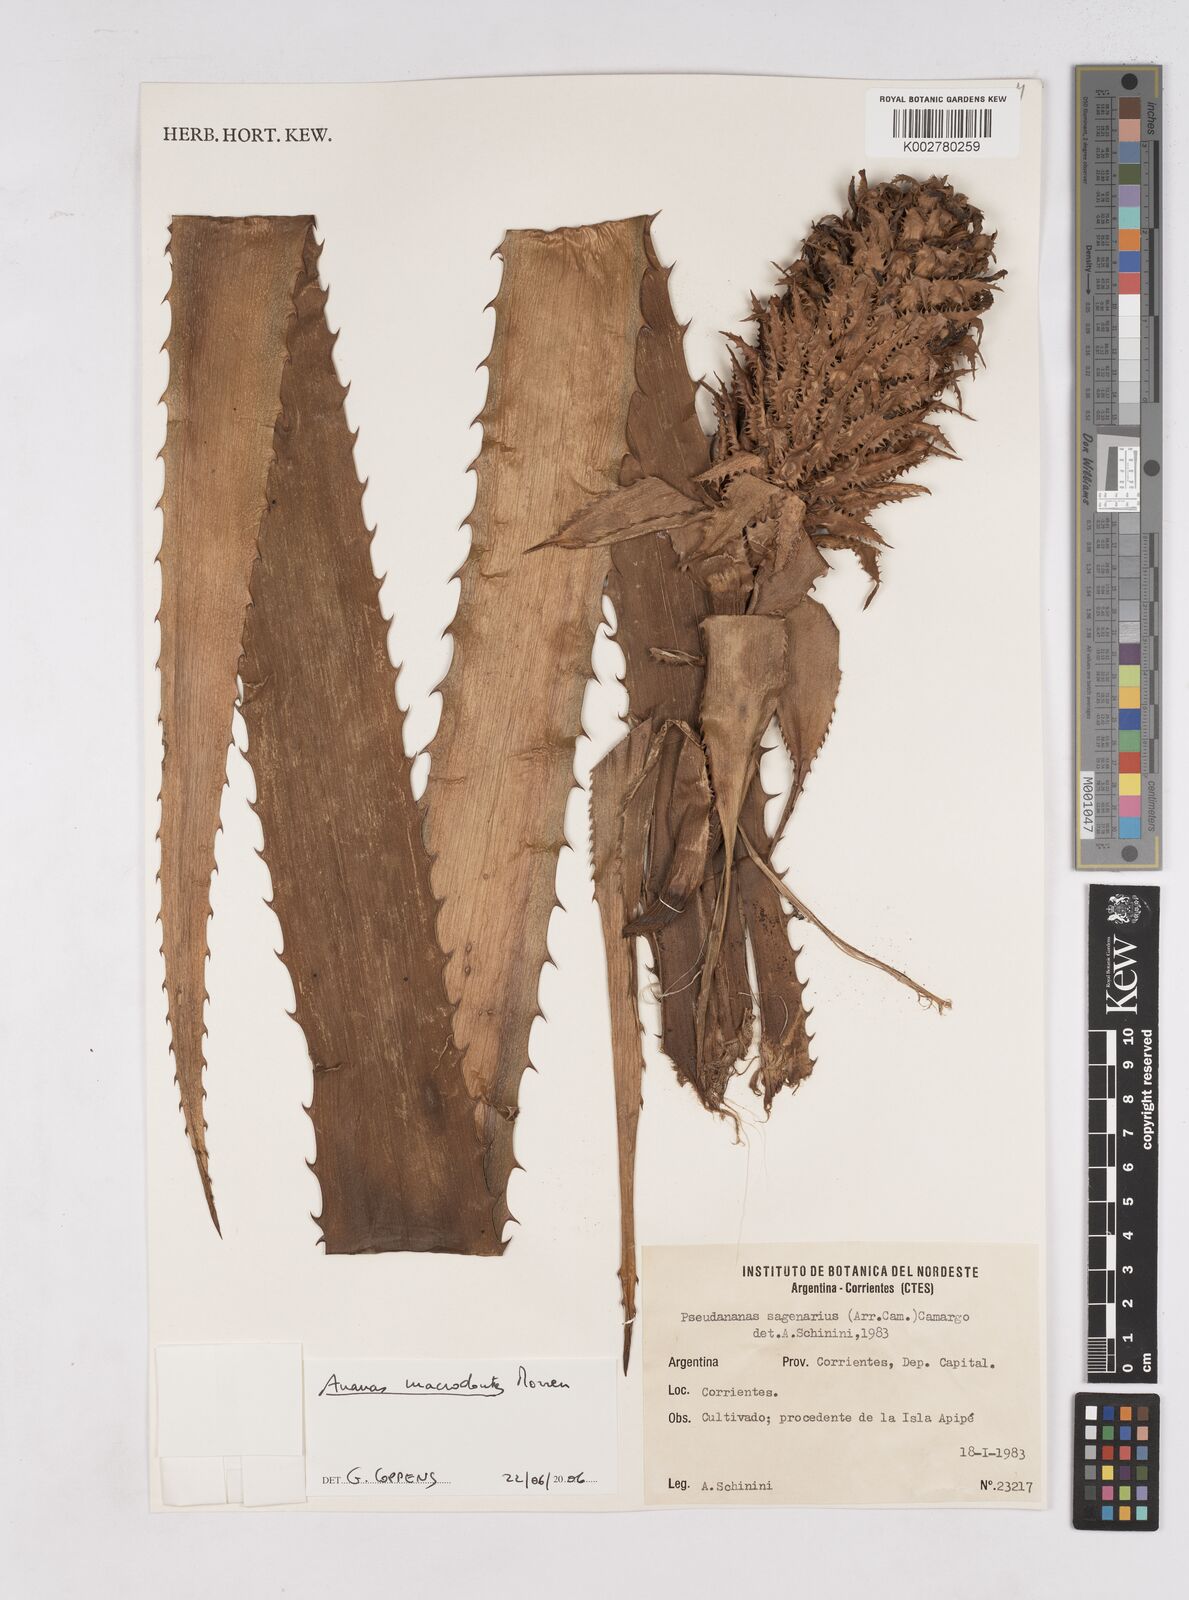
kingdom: Plantae
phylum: Tracheophyta
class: Liliopsida
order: Poales
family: Bromeliaceae
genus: Ananas
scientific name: Ananas macrodontes
